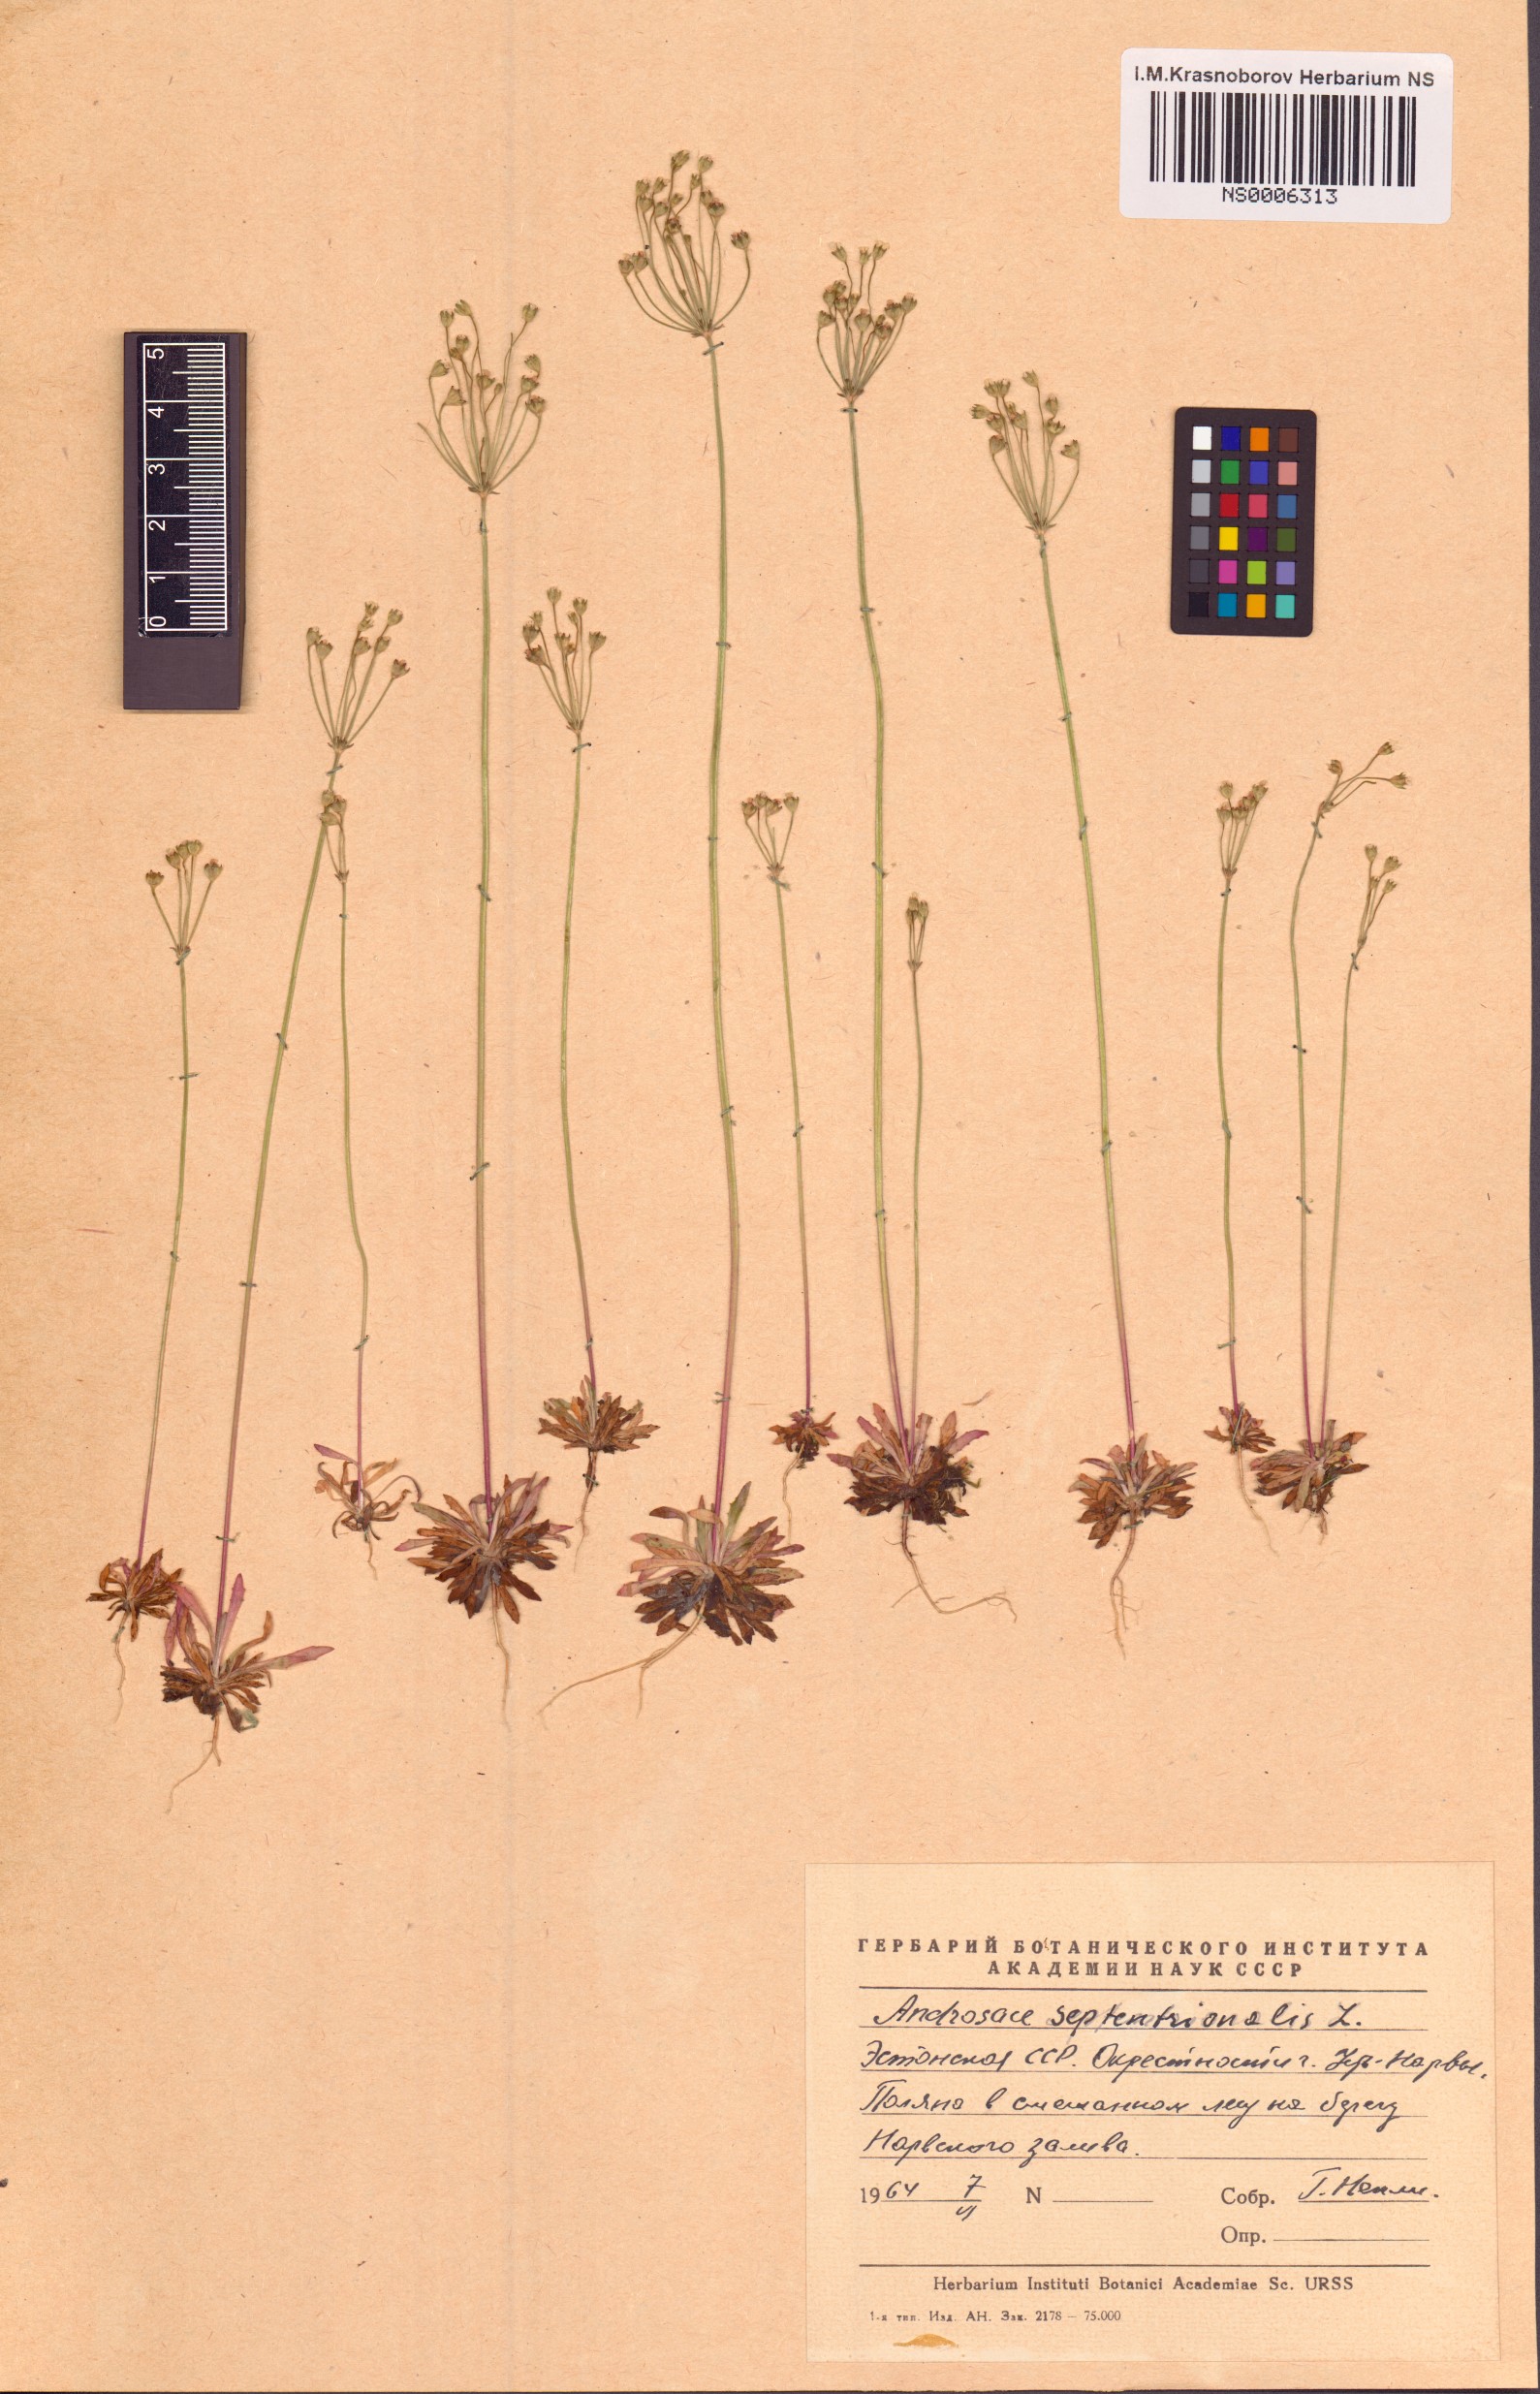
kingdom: Plantae
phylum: Tracheophyta
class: Magnoliopsida
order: Ericales
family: Primulaceae
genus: Androsace
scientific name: Androsace septentrionalis
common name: Hairy northern fairy-candelabra
